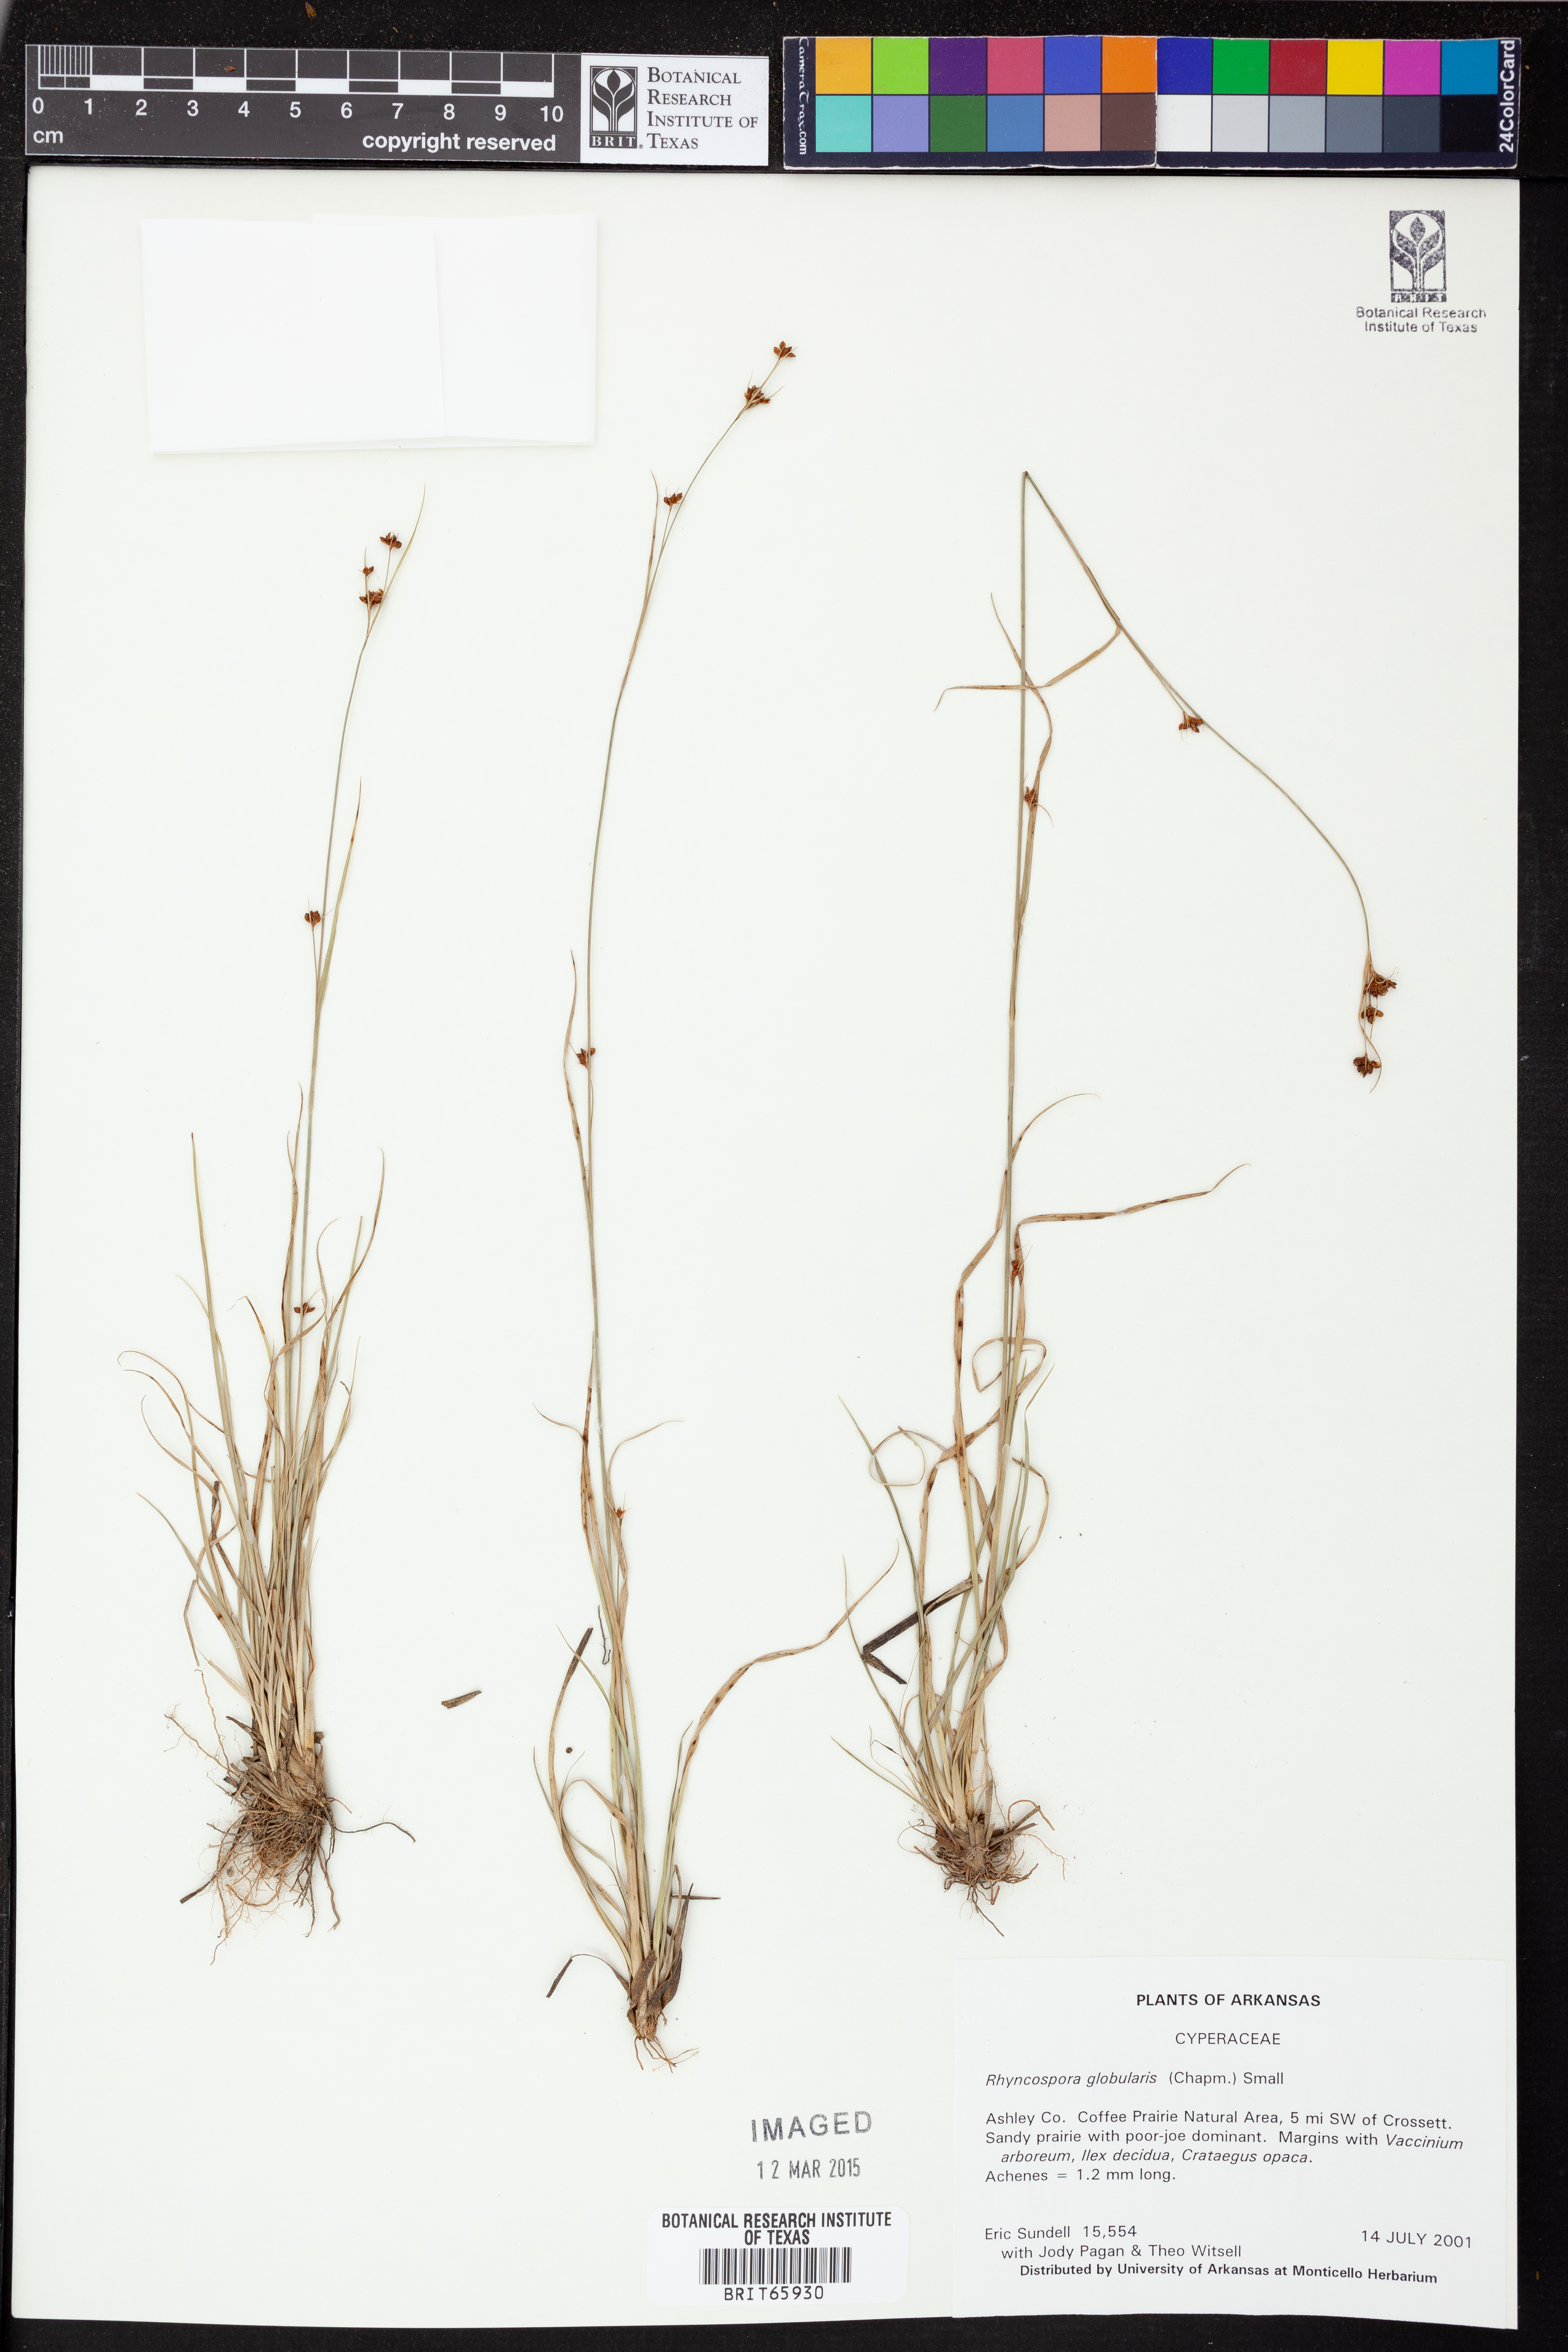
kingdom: Plantae
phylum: Tracheophyta
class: Liliopsida
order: Poales
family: Cyperaceae
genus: Rhynchospora
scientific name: Rhynchospora globularis
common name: Globe beaksedge
